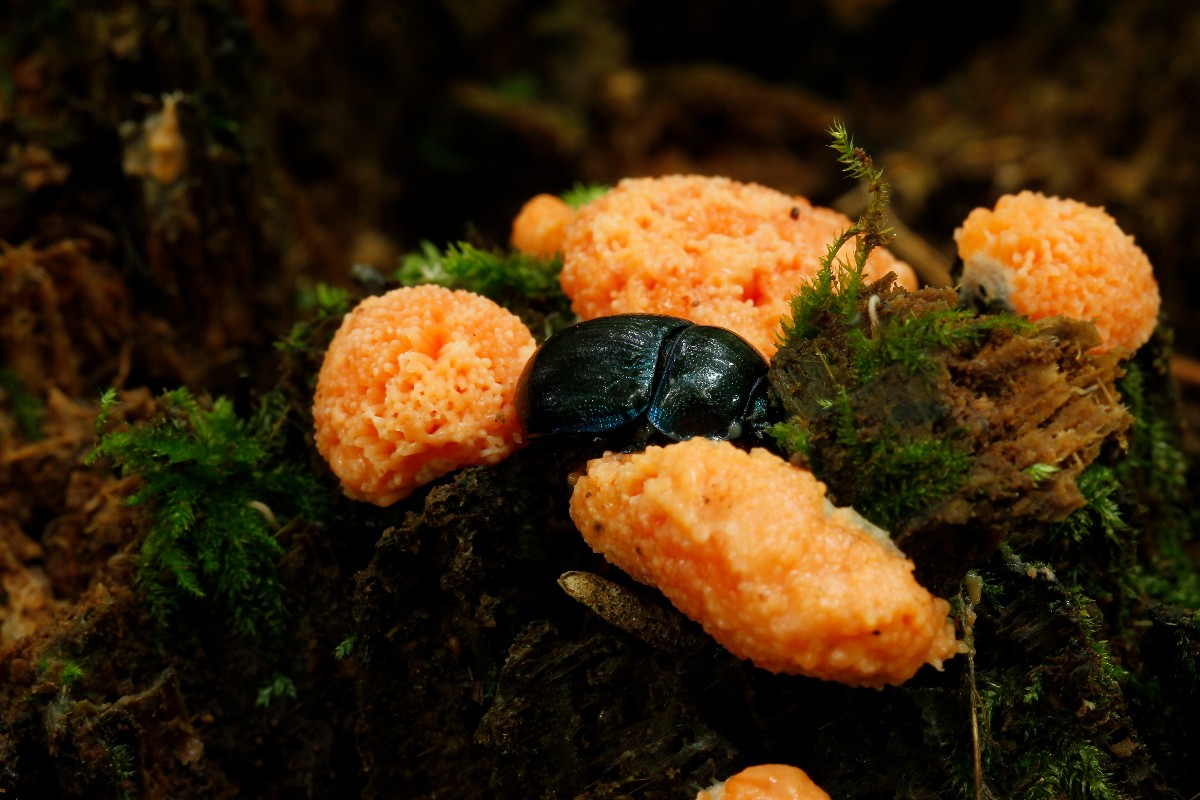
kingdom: Protozoa
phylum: Mycetozoa
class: Myxomycetes
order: Cribrariales
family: Tubiferaceae
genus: Tubifera
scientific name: Tubifera ferruginosa
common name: kanel-støvrør
